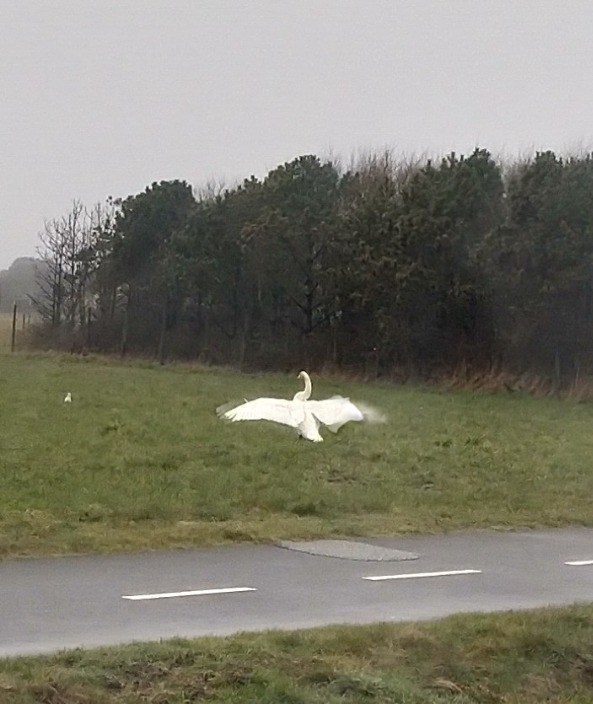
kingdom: Animalia
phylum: Chordata
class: Aves
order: Anseriformes
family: Anatidae
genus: Cygnus
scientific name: Cygnus cygnus
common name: Sangsvane
